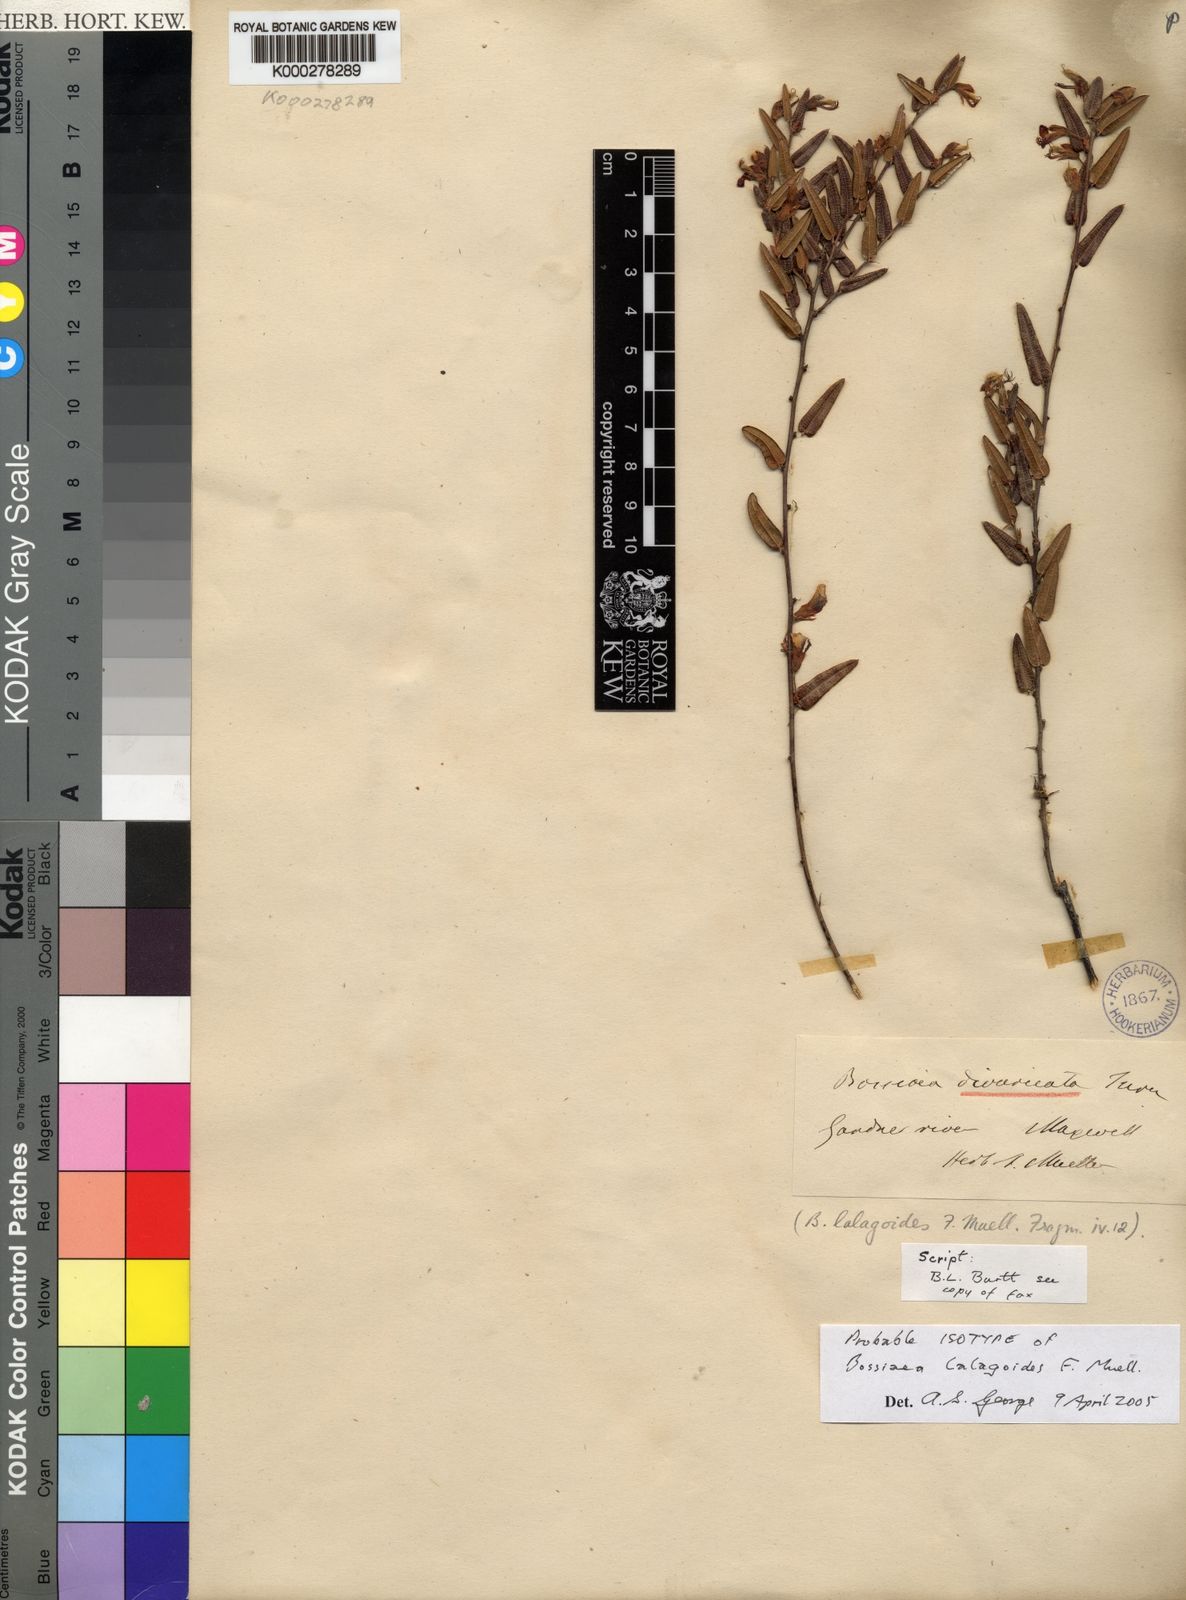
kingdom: Plantae
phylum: Tracheophyta
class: Magnoliopsida
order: Fabales
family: Fabaceae
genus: Bossiaea
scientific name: Bossiaea divaricata
